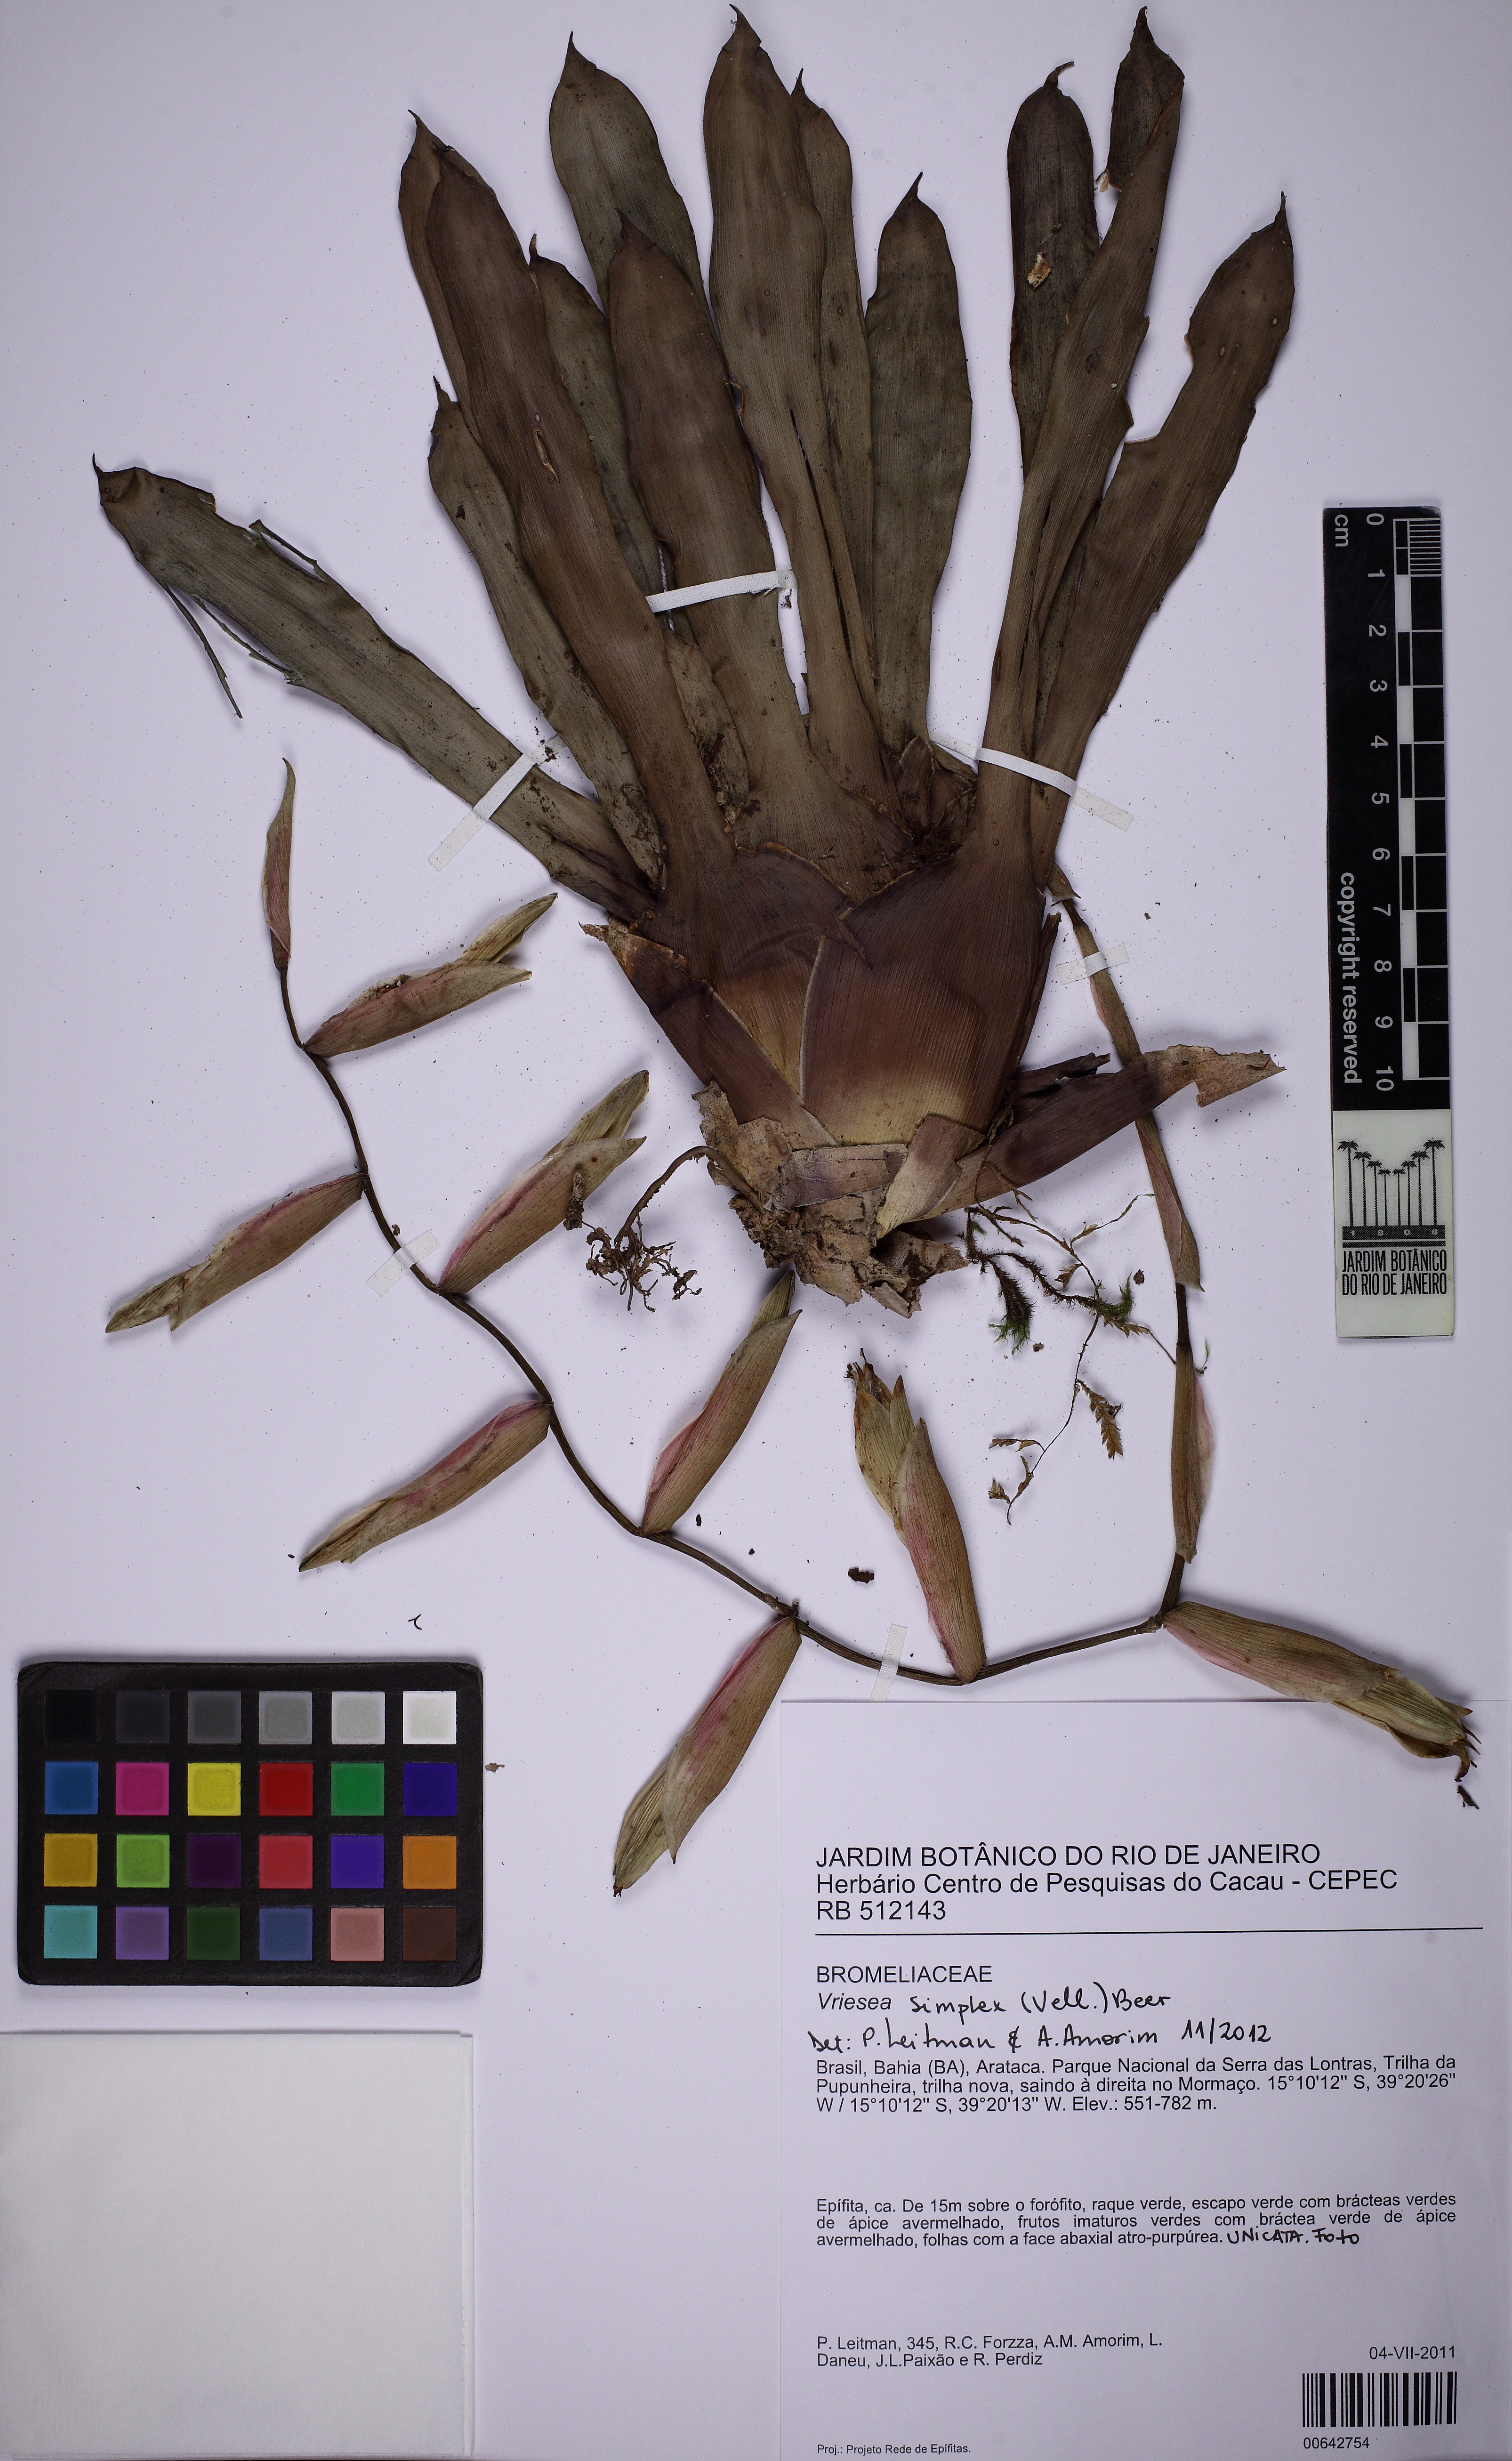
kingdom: Plantae
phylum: Tracheophyta
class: Liliopsida
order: Poales
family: Bromeliaceae
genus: Vriesea
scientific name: Vriesea simplex
